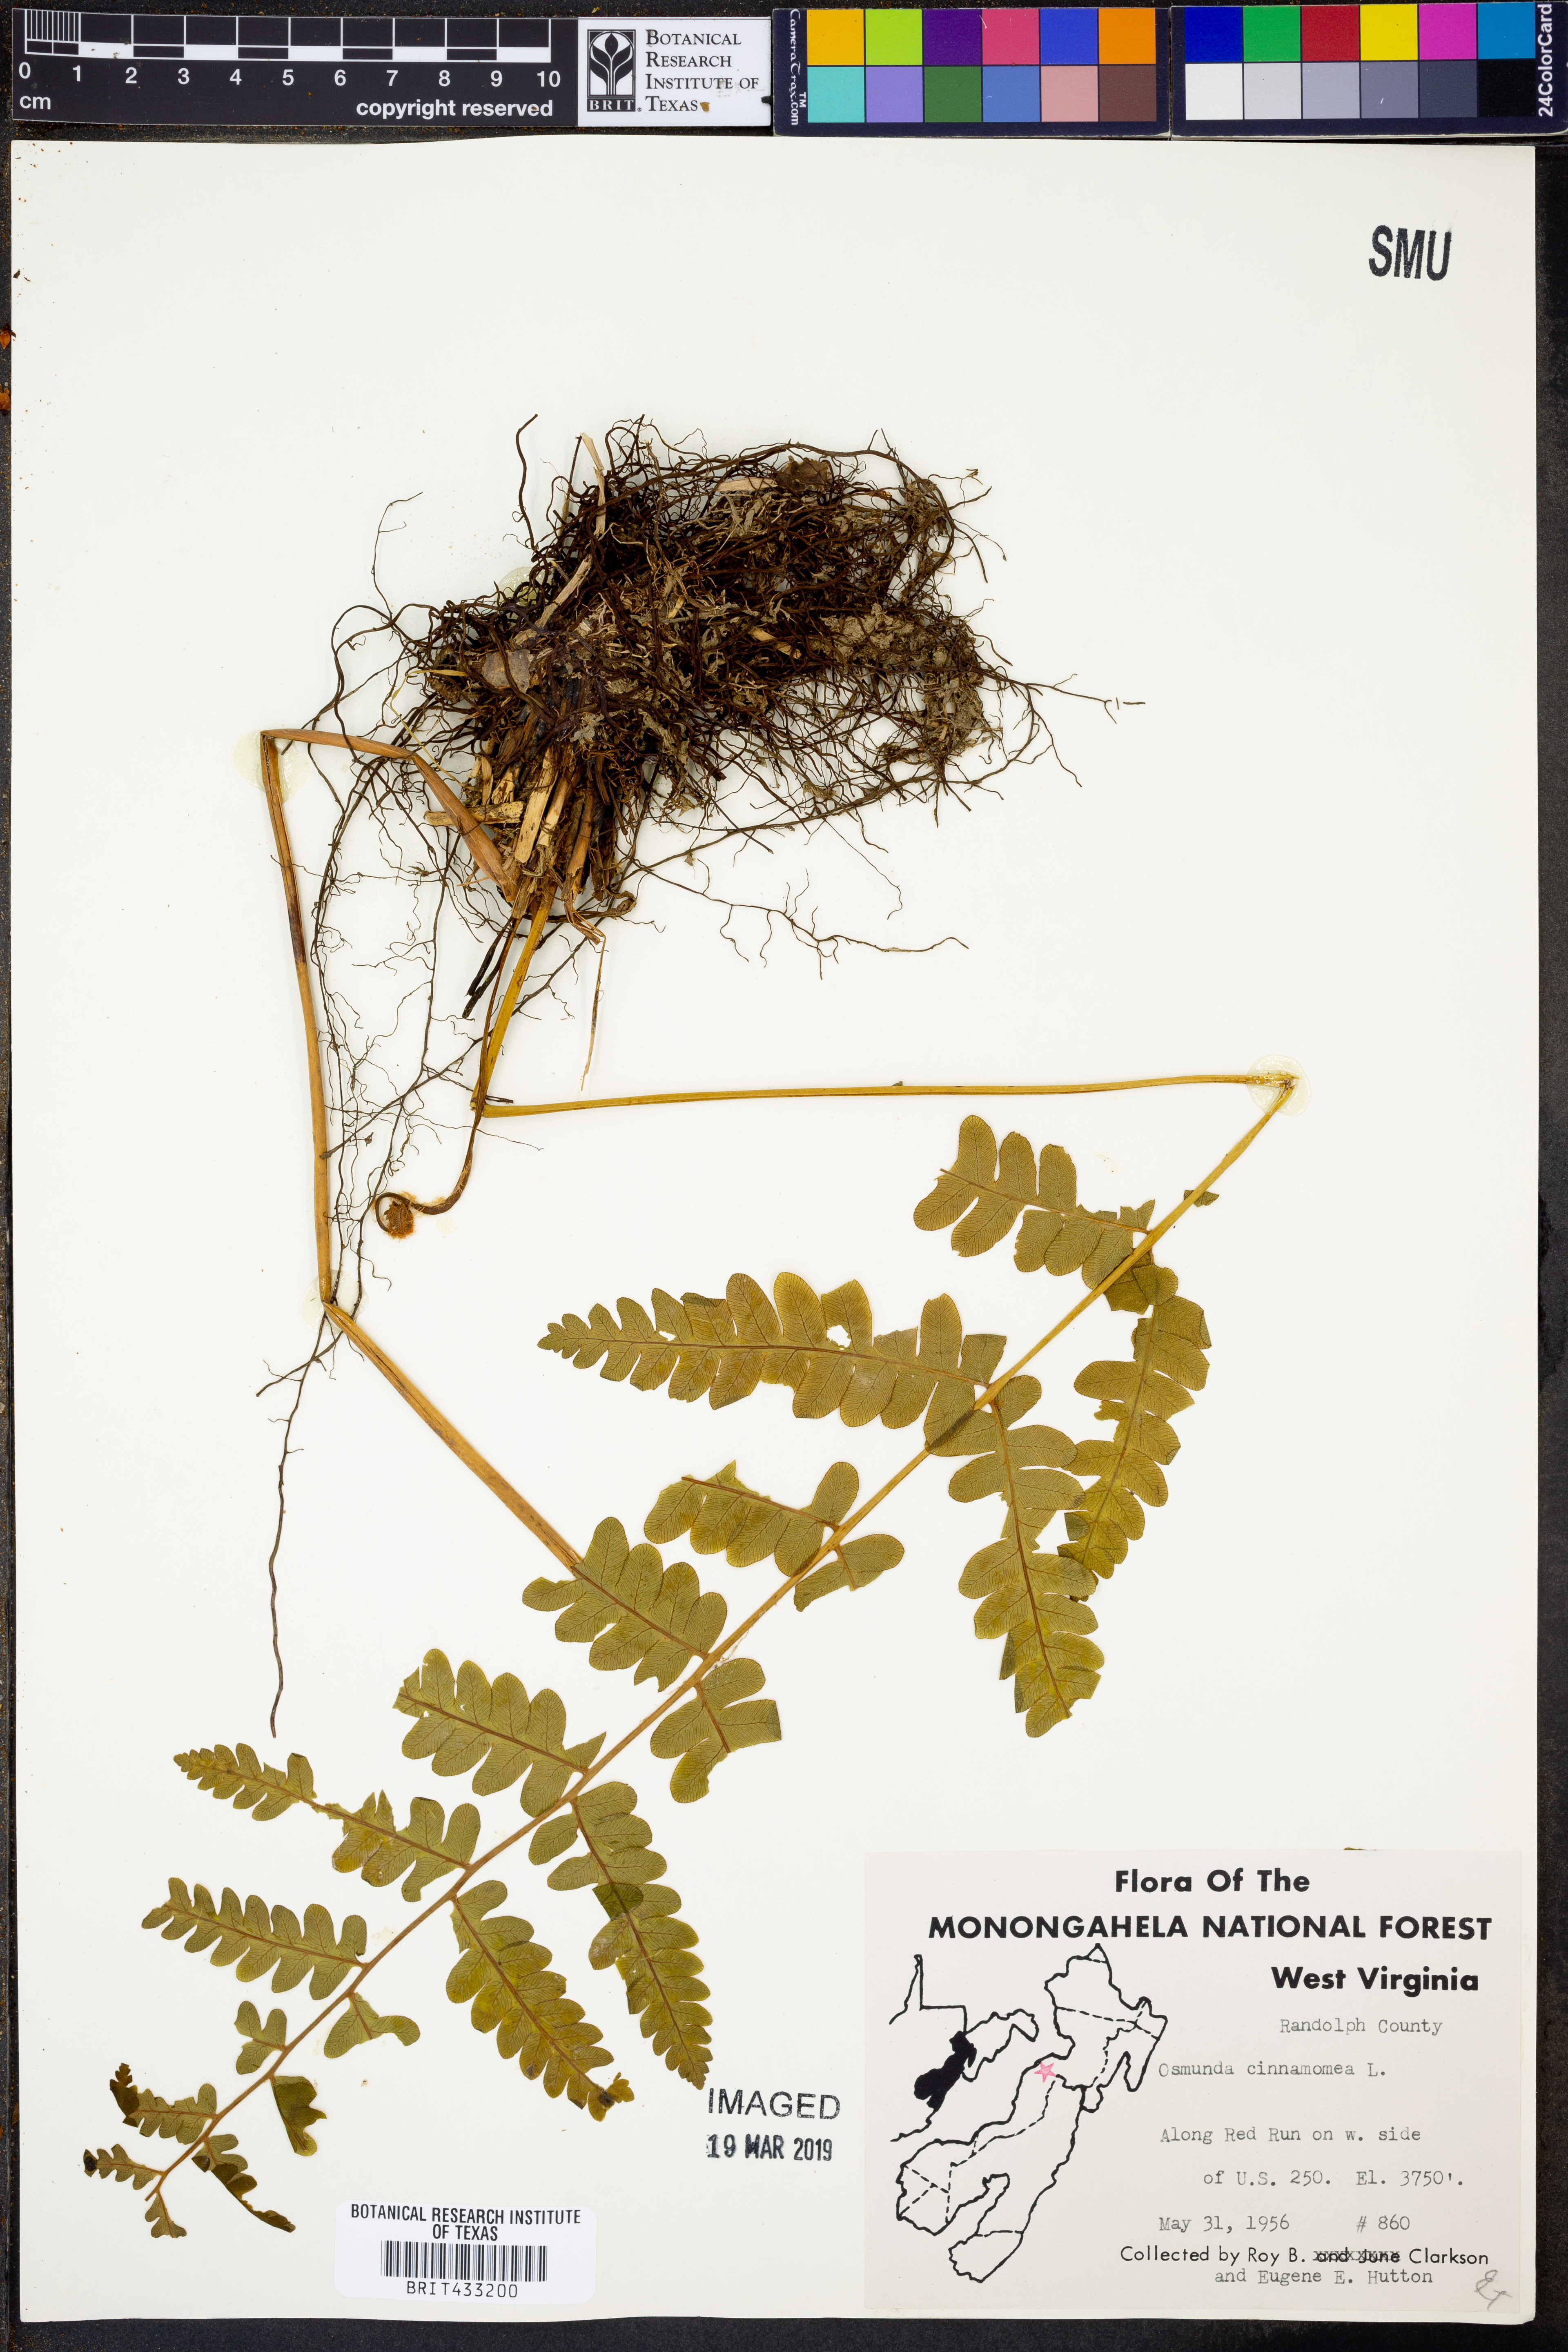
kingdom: Plantae
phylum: Tracheophyta
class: Polypodiopsida
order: Osmundales
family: Osmundaceae
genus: Osmundastrum
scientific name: Osmundastrum cinnamomeum
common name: Cinnamon fern
